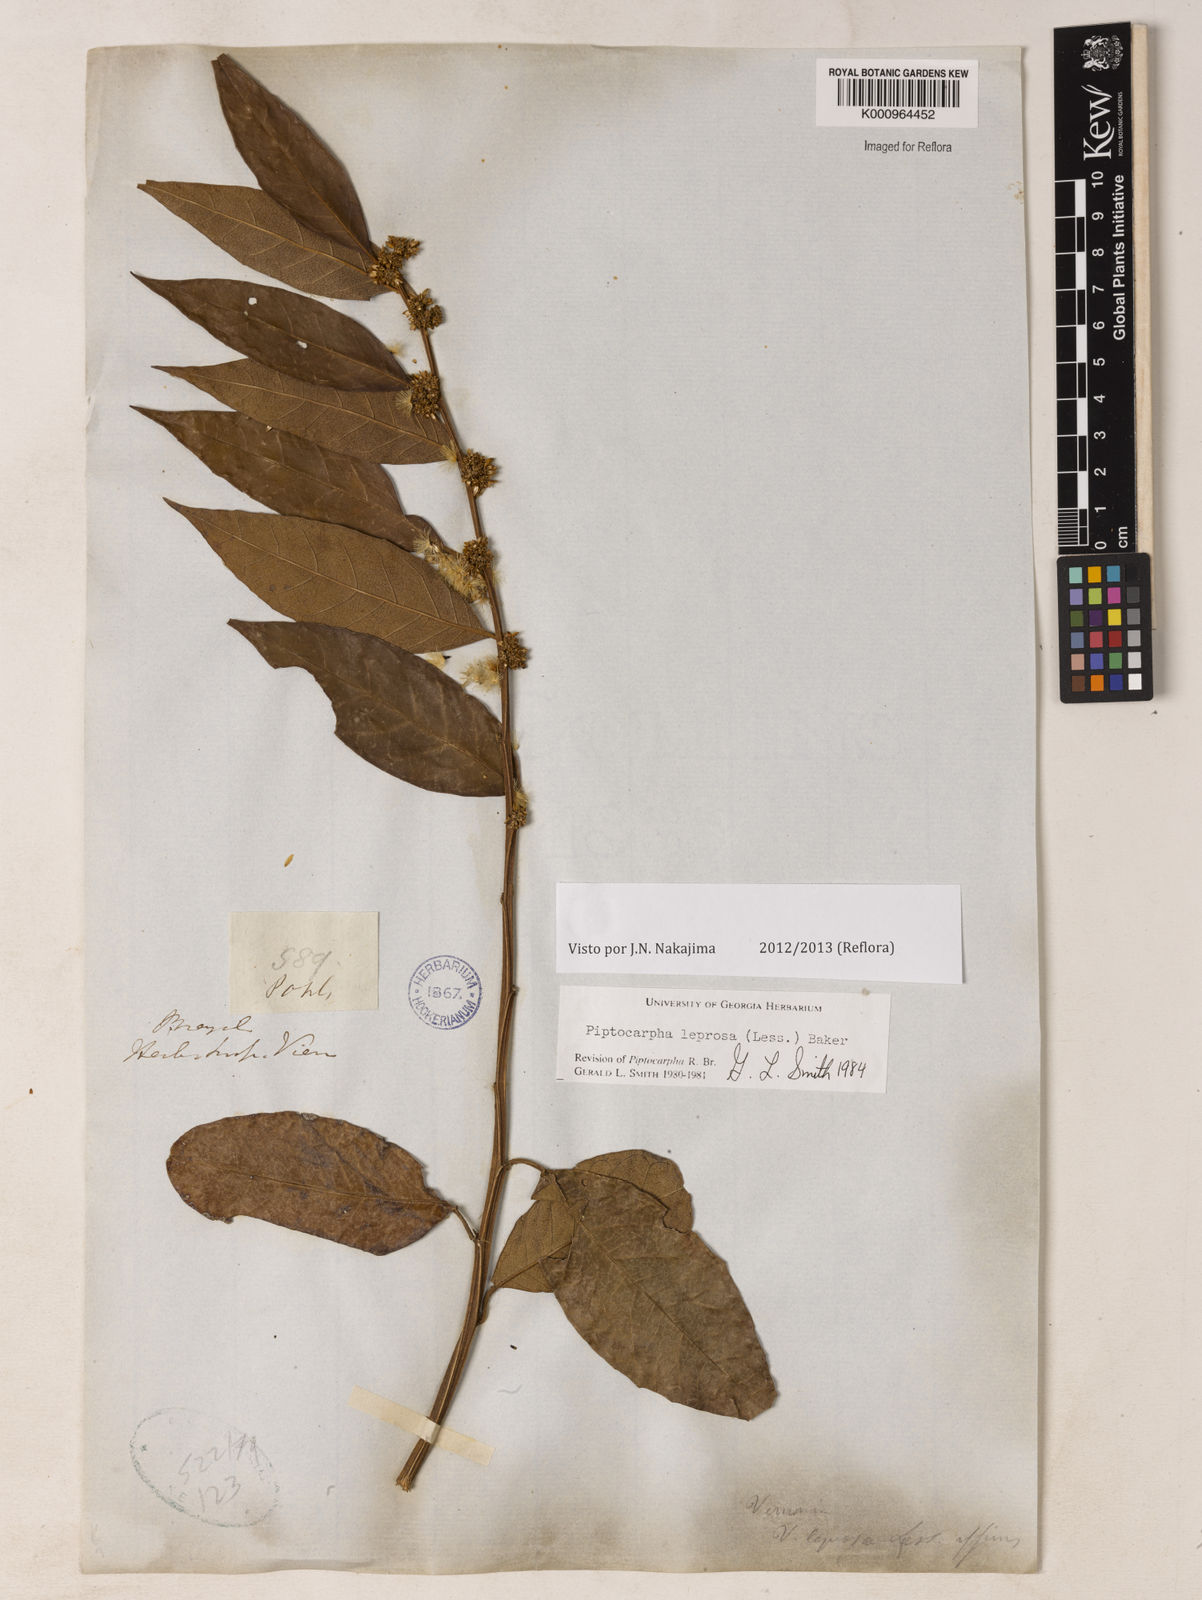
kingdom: Plantae
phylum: Tracheophyta
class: Magnoliopsida
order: Asterales
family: Asteraceae
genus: Piptocarpha
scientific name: Piptocarpha leprosa
